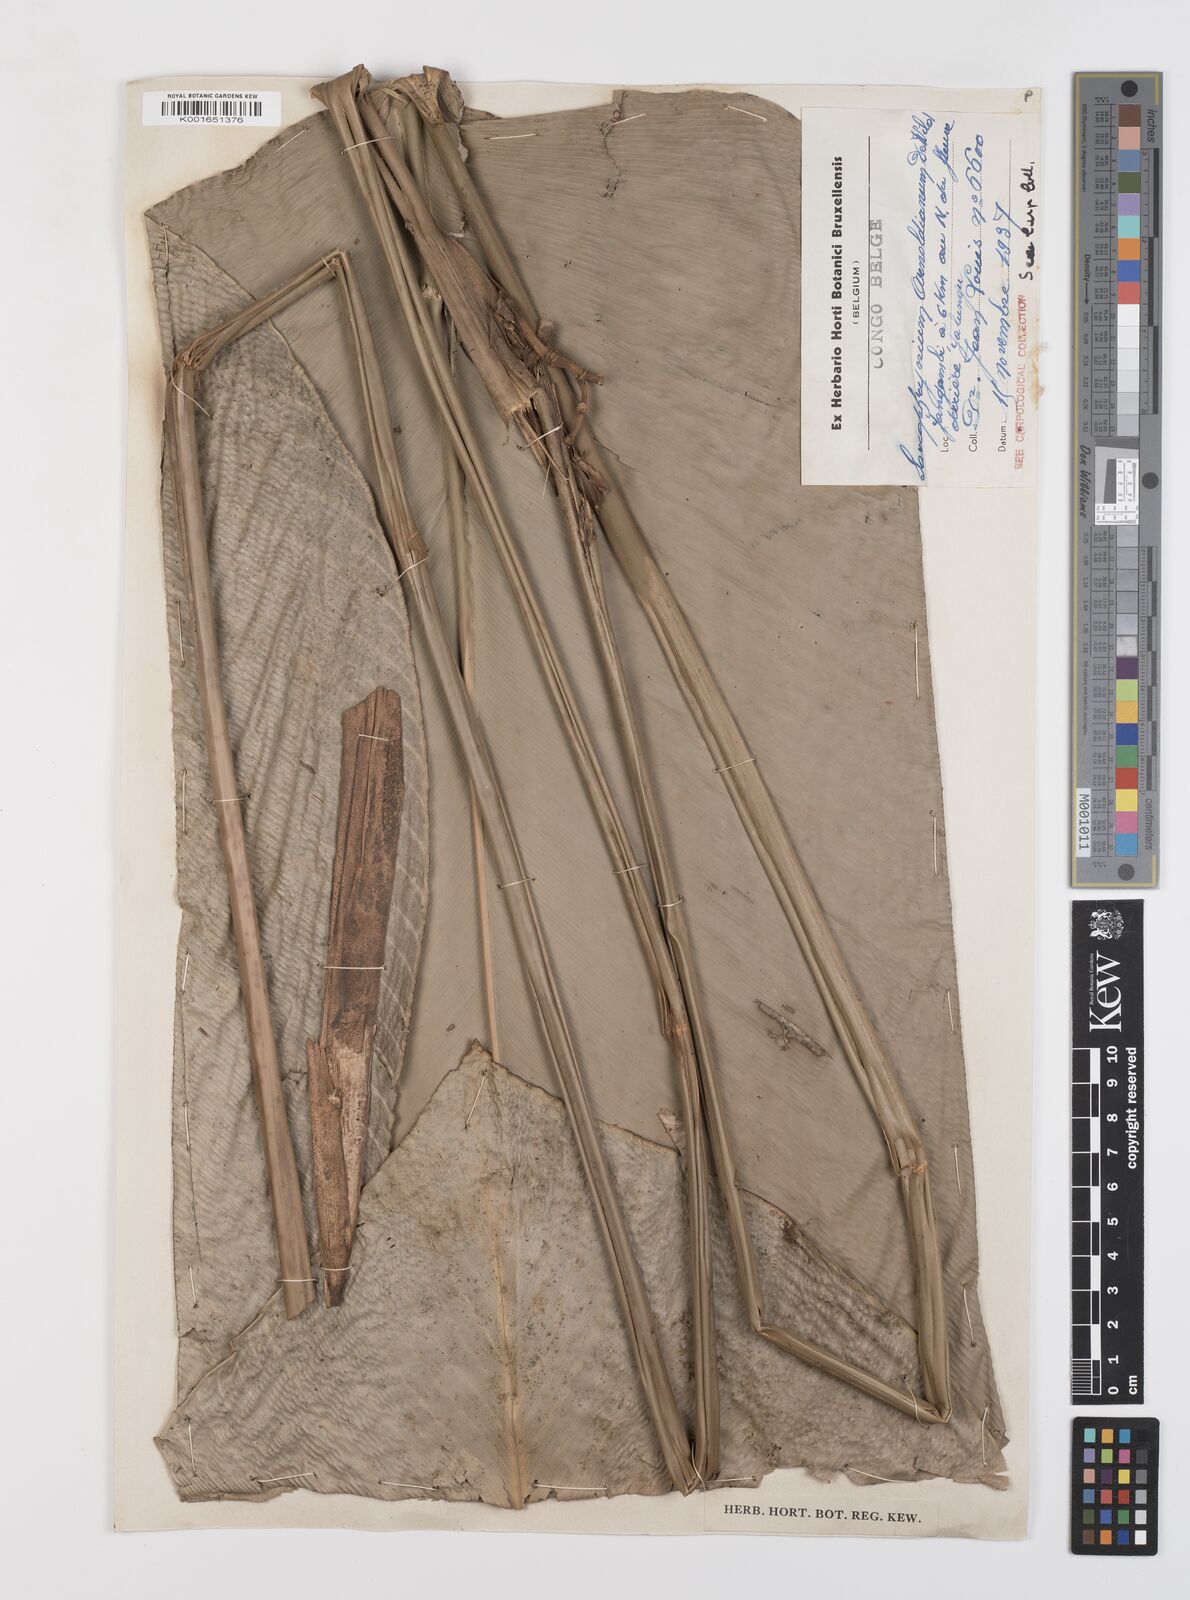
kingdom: Plantae
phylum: Tracheophyta
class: Liliopsida
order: Zingiberales
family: Marantaceae
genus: Megaphrynium
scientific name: Megaphrynium macrostachyum
